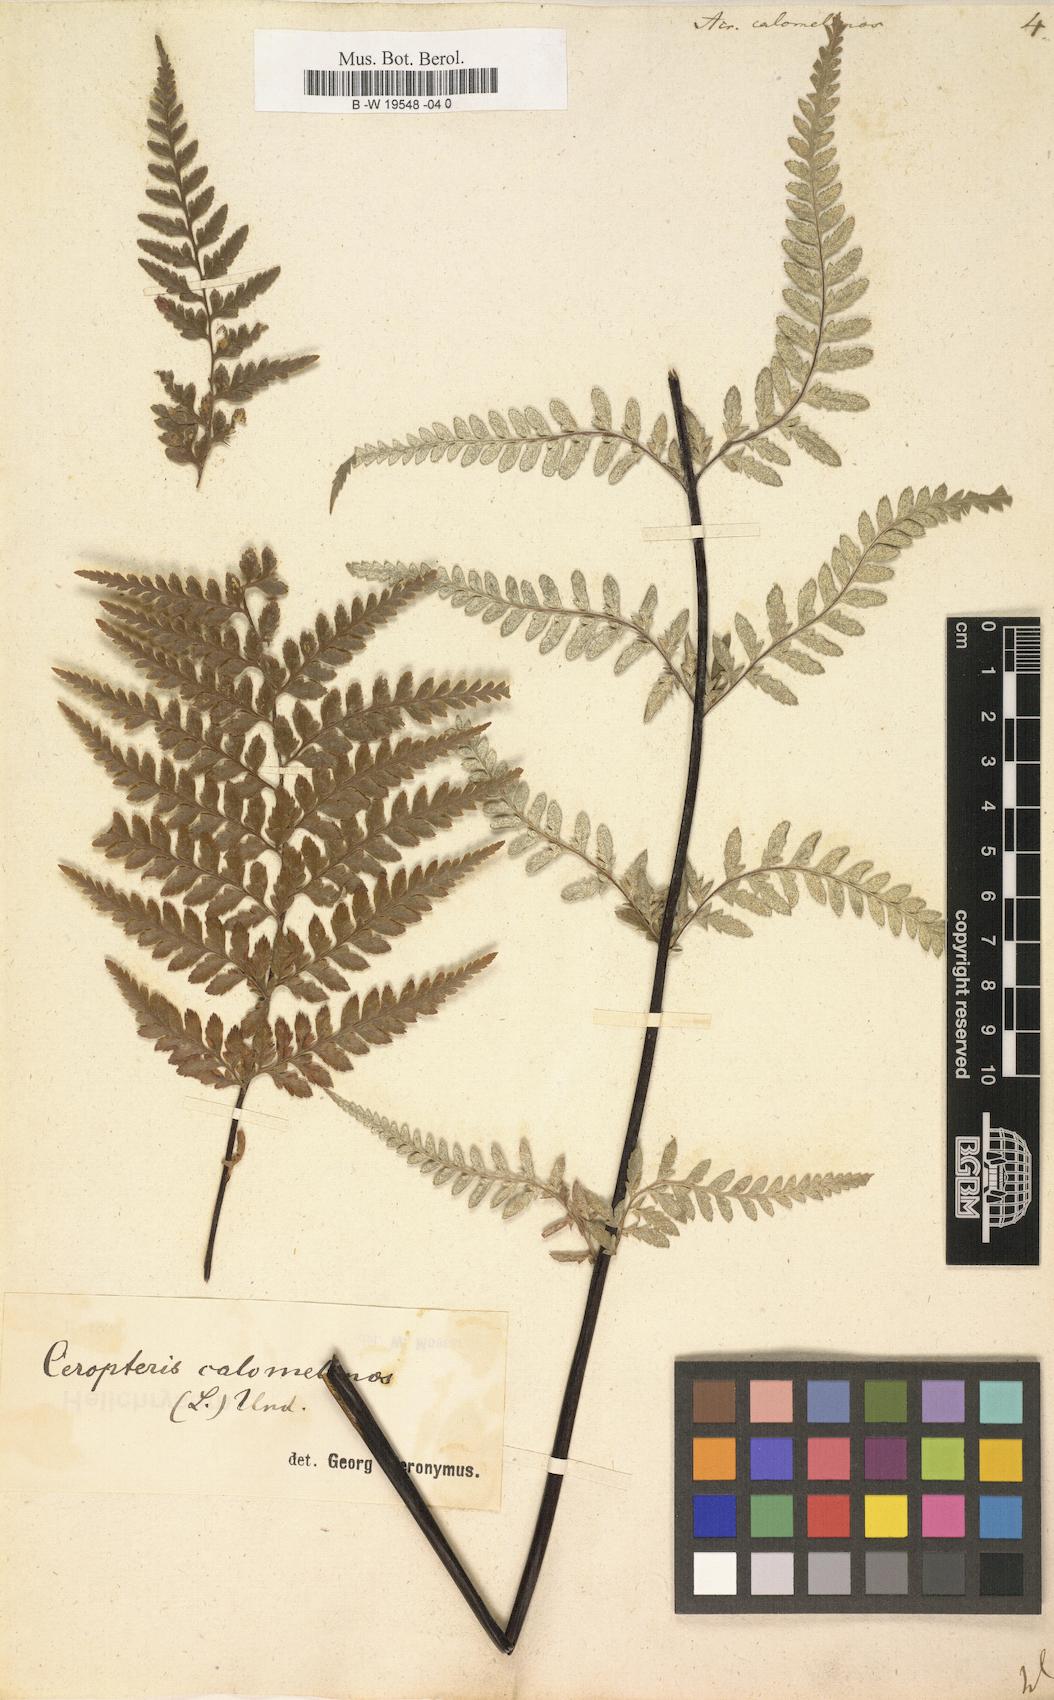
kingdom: Plantae
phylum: Tracheophyta
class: Polypodiopsida
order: Polypodiales
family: Pteridaceae
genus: Pityrogramma
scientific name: Pityrogramma calomelanos
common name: Dixie silverback fern
